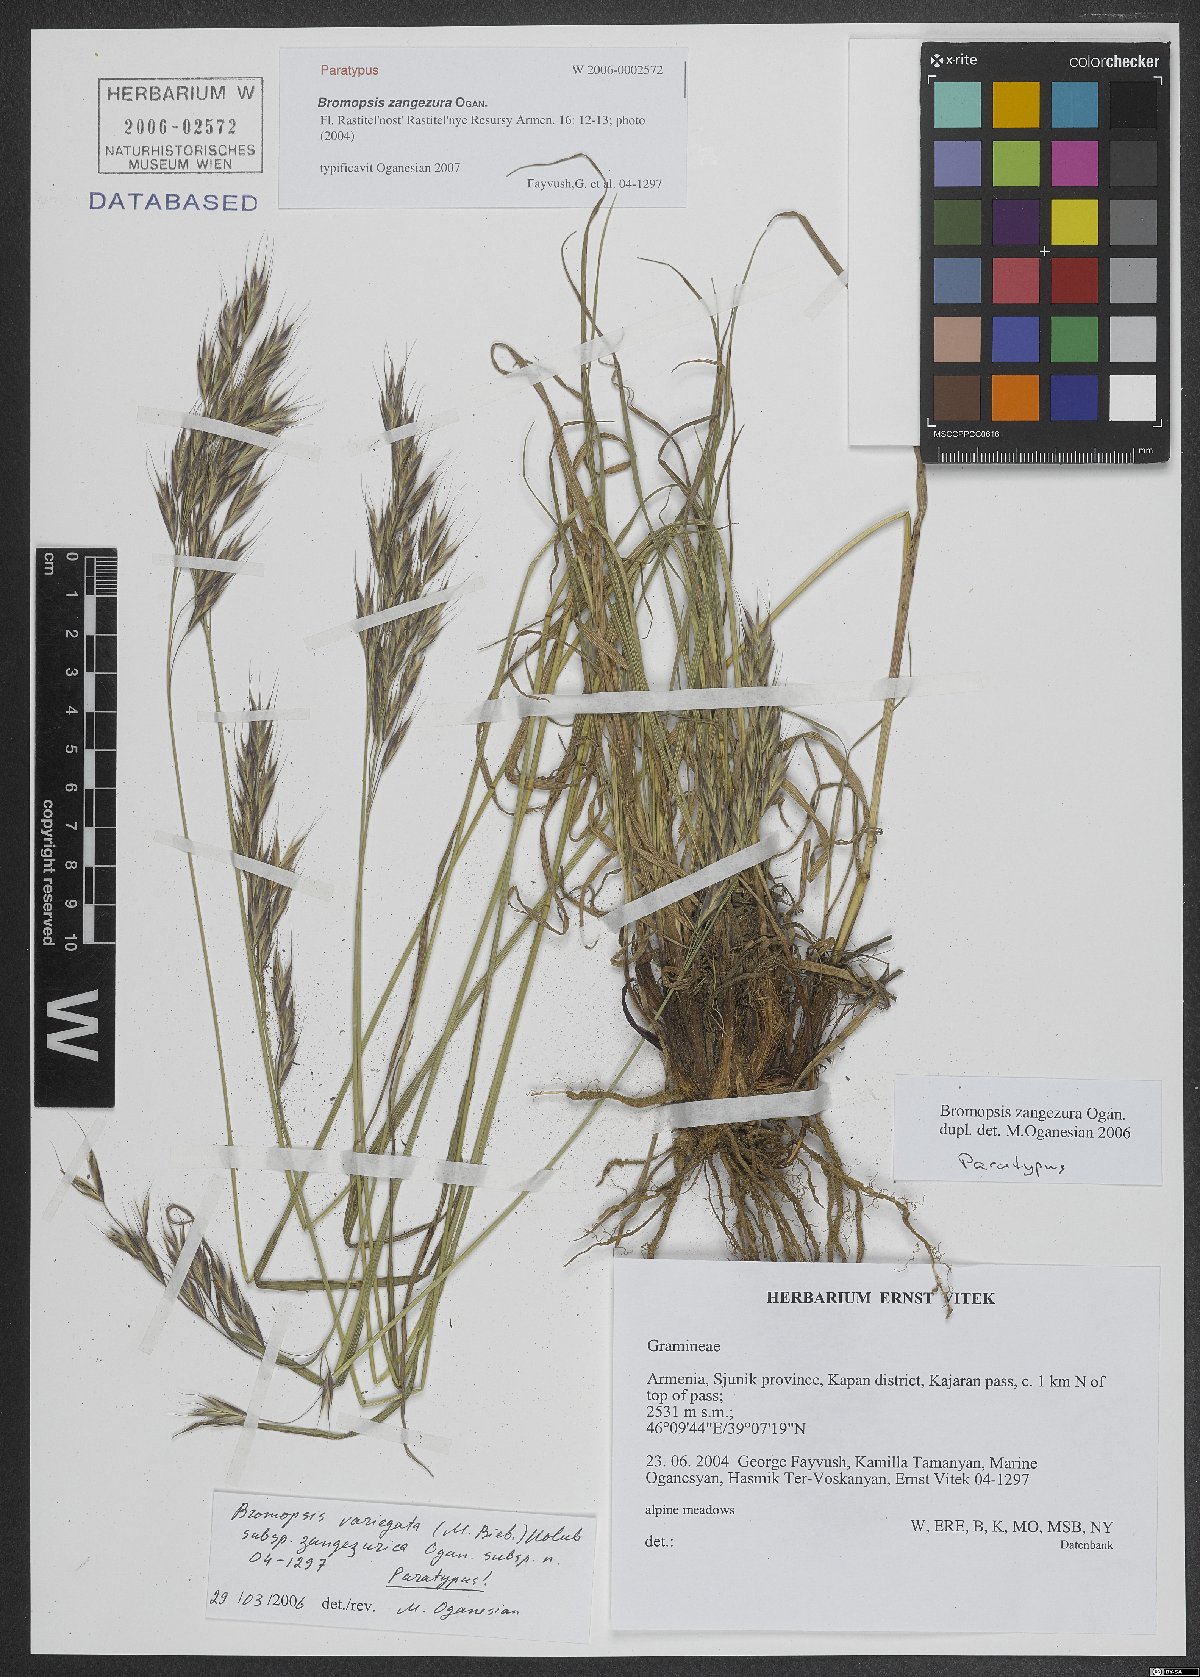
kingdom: Plantae
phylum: Tracheophyta
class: Liliopsida
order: Poales
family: Poaceae
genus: Bromus
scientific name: Bromus erectus
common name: Erect brome
